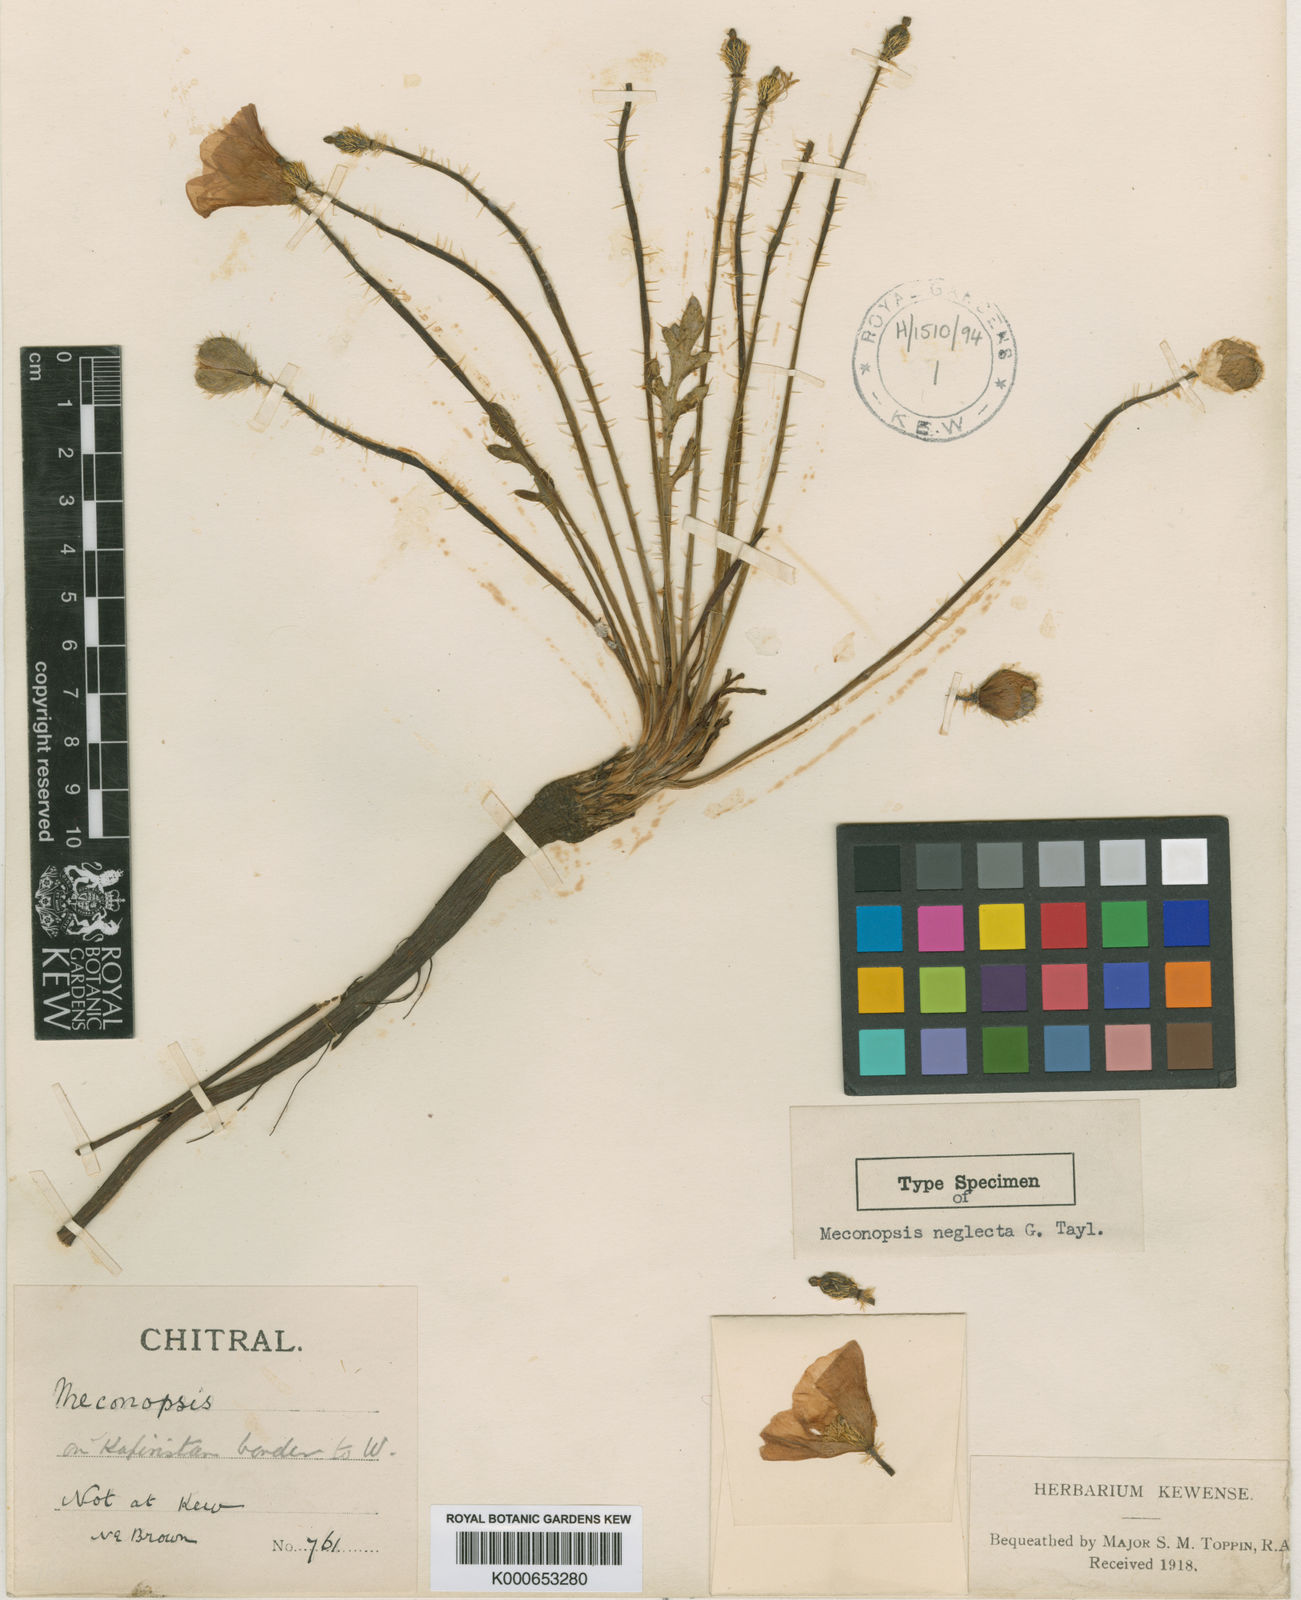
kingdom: Plantae
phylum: Tracheophyta
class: Magnoliopsida
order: Ranunculales
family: Papaveraceae
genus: Meconopsis
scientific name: Meconopsis neglecta
